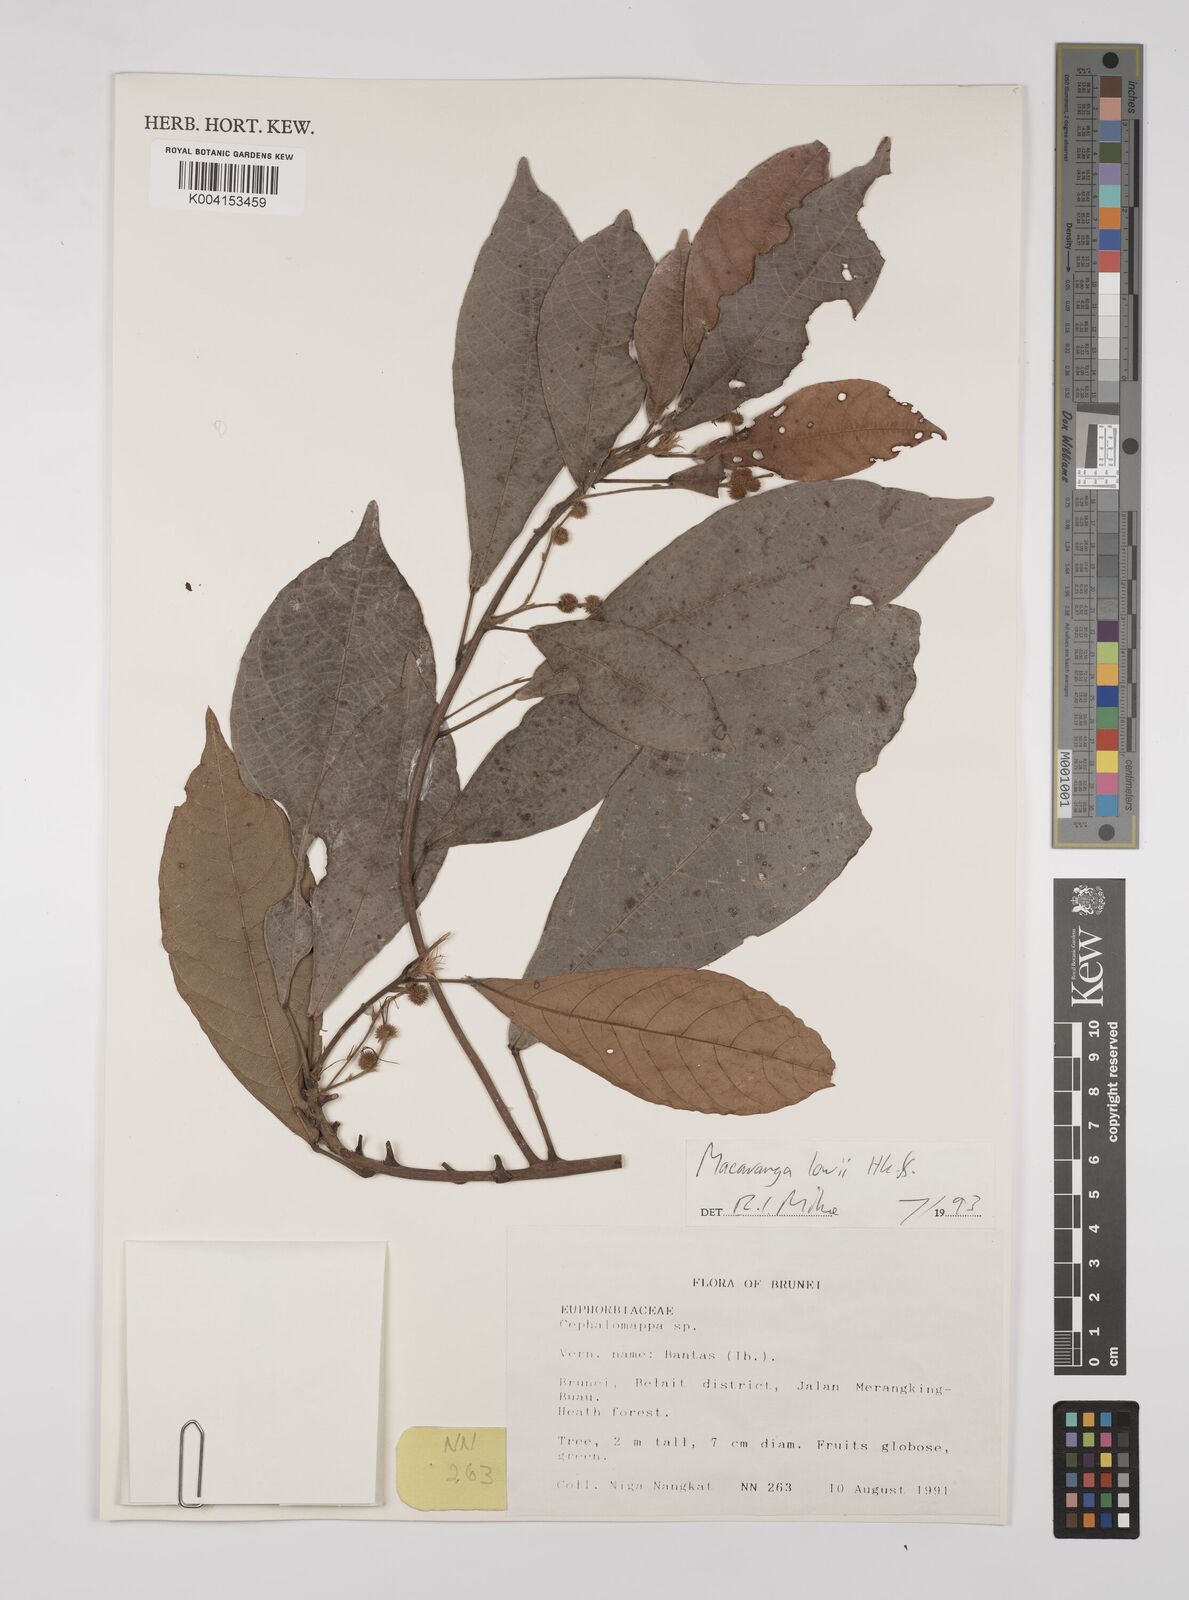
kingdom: Plantae
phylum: Tracheophyta
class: Magnoliopsida
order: Malpighiales
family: Euphorbiaceae
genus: Macaranga
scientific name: Macaranga lowii
